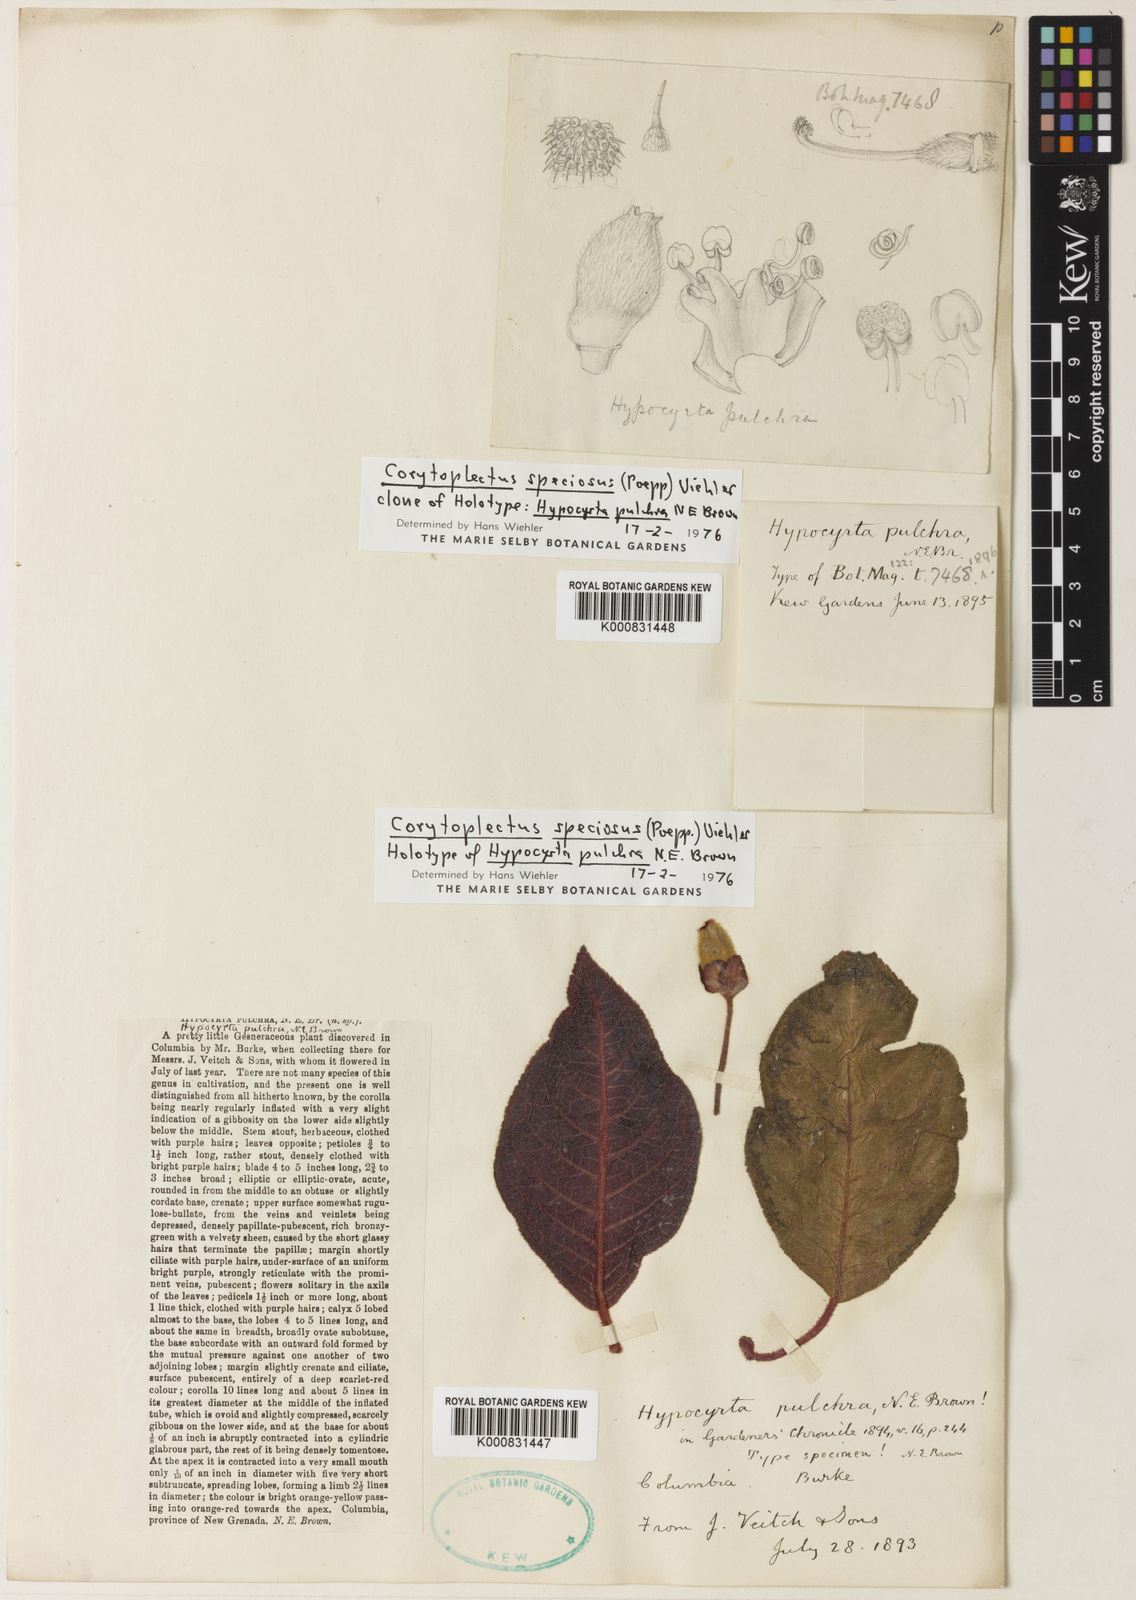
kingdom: Plantae
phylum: Tracheophyta
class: Magnoliopsida
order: Lamiales
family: Gesneriaceae
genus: Corytoplectus
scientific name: Corytoplectus speciosus
